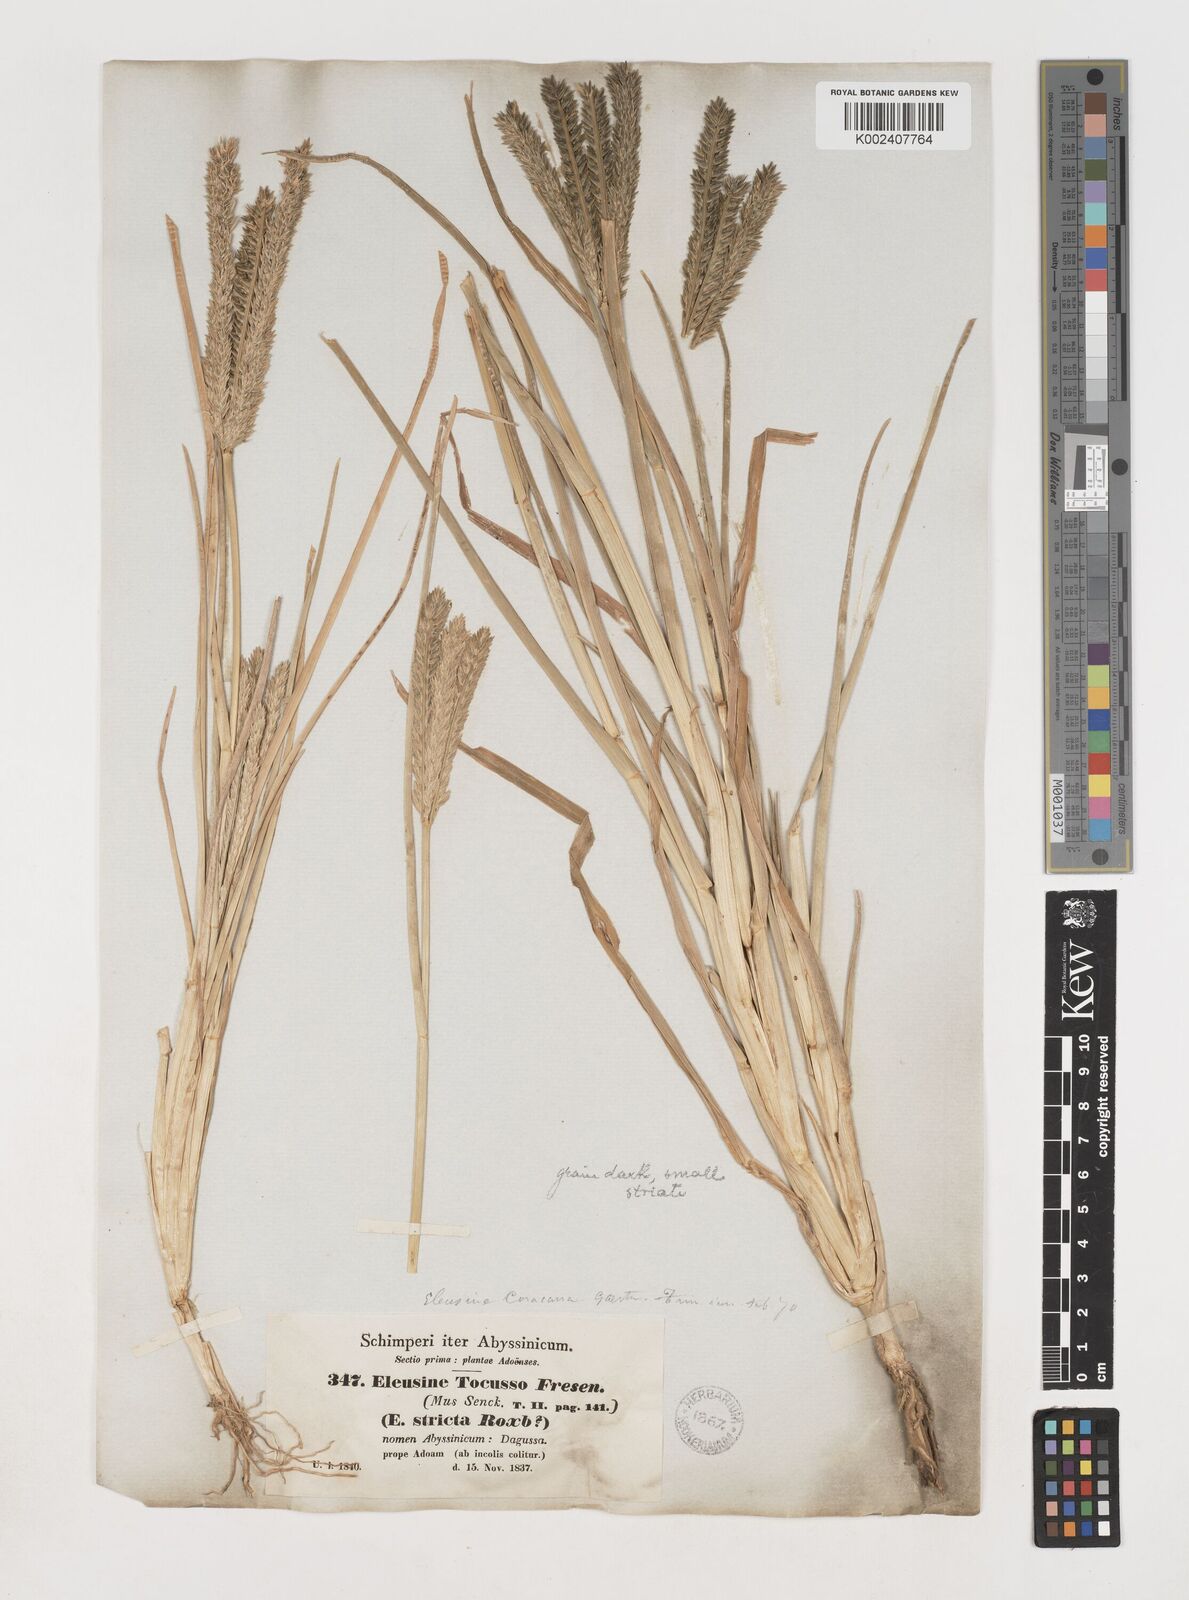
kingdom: Plantae
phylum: Tracheophyta
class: Liliopsida
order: Poales
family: Poaceae
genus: Eleusine
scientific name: Eleusine coracana
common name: Finger millet
